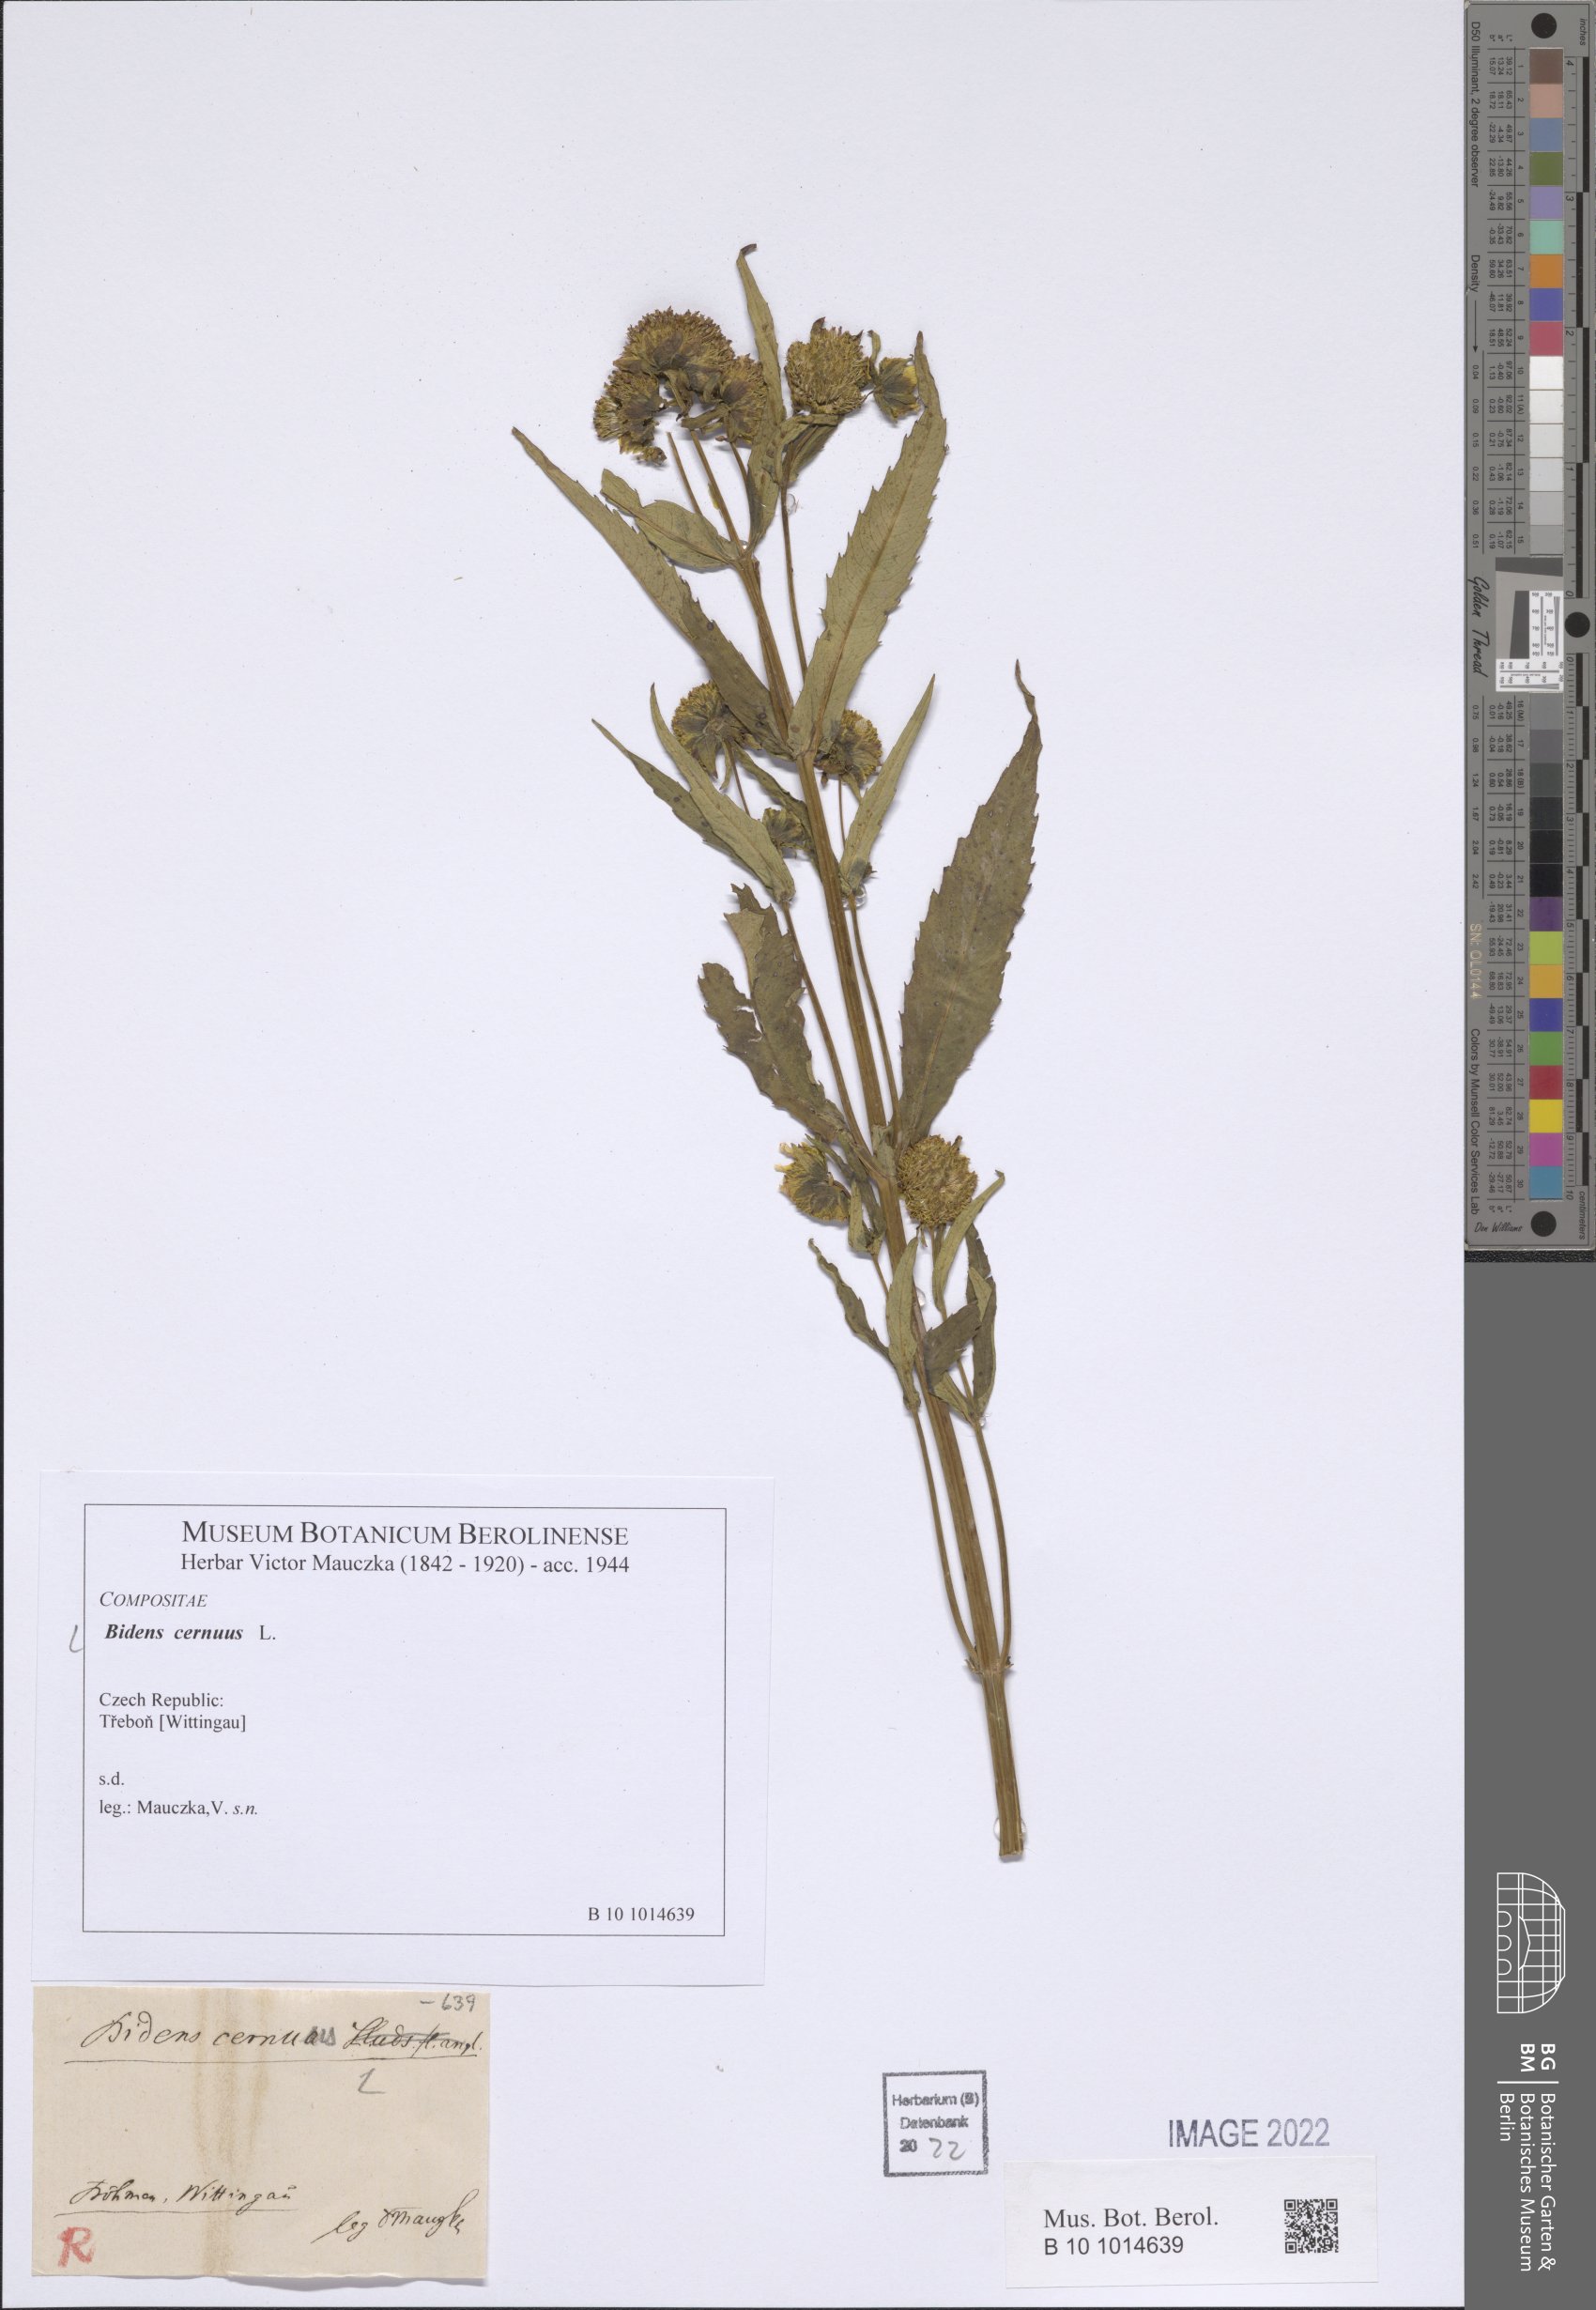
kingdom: Plantae
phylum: Tracheophyta
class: Magnoliopsida
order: Asterales
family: Asteraceae
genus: Bidens
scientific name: Bidens cernuus
